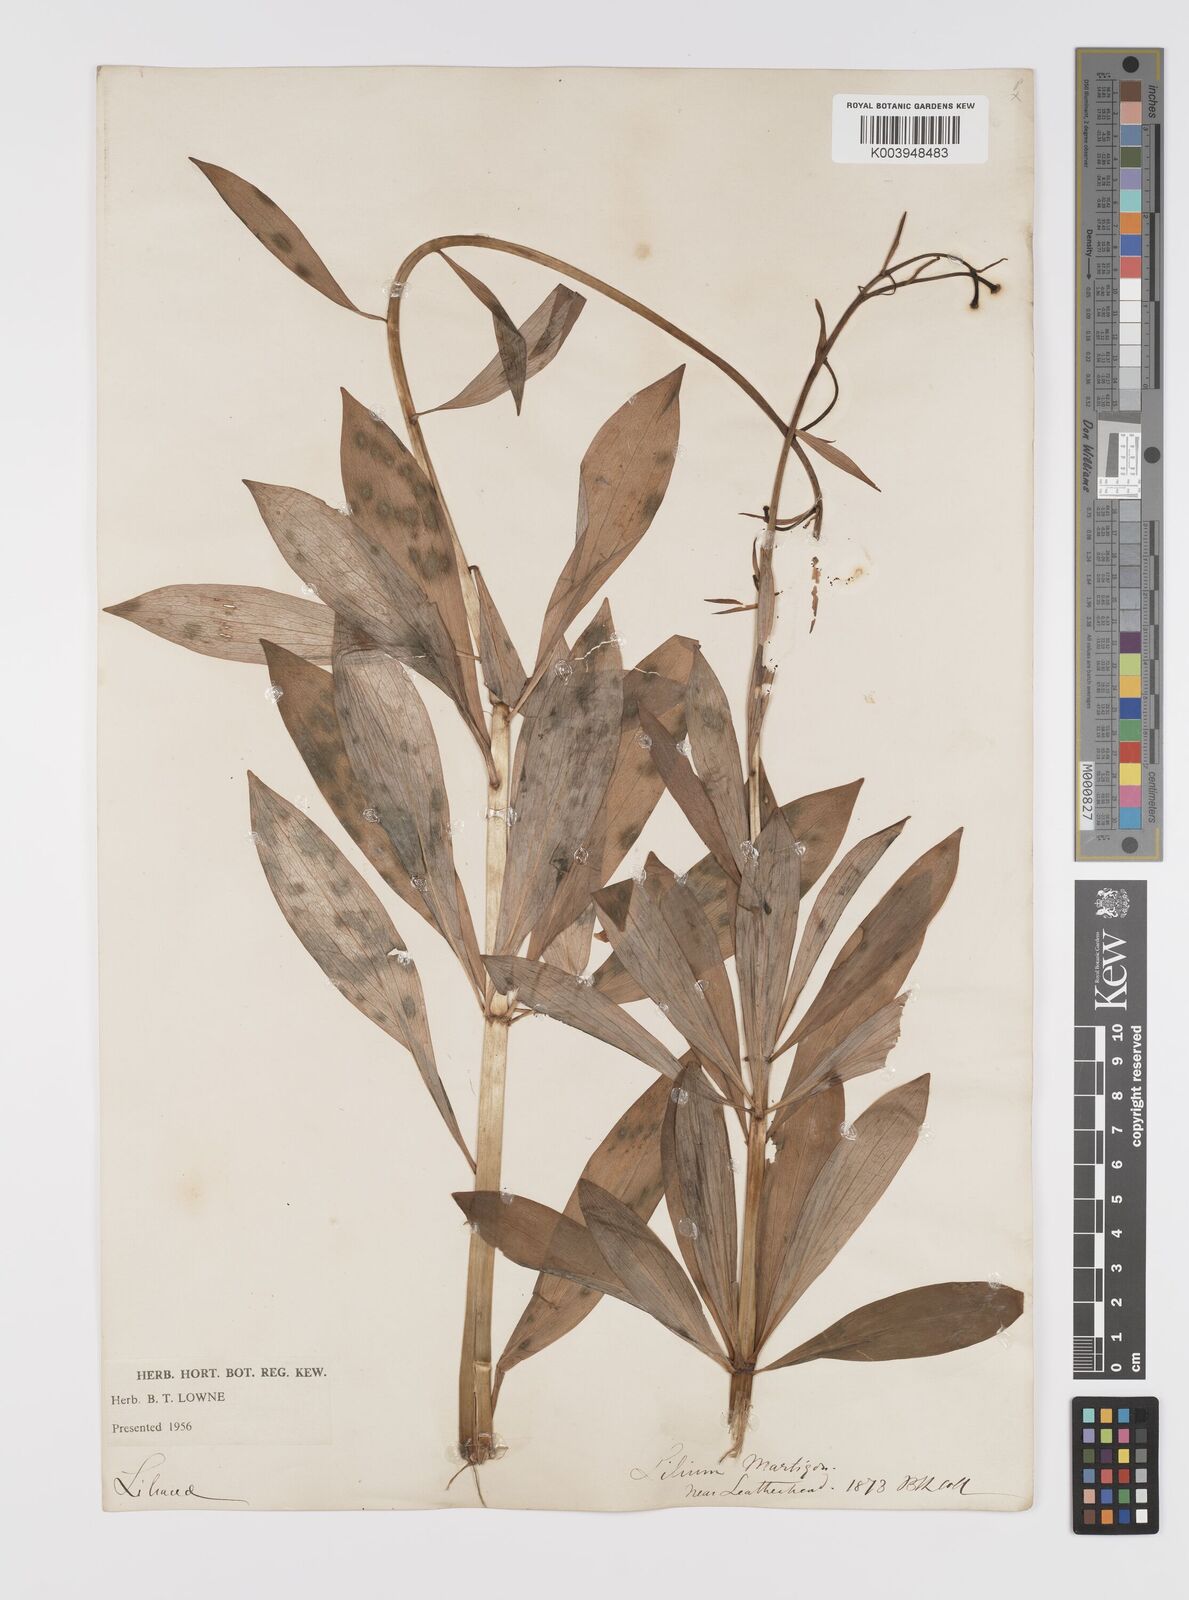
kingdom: Plantae
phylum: Tracheophyta
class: Liliopsida
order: Liliales
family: Liliaceae
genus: Lilium
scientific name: Lilium martagon
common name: Martagon lily
